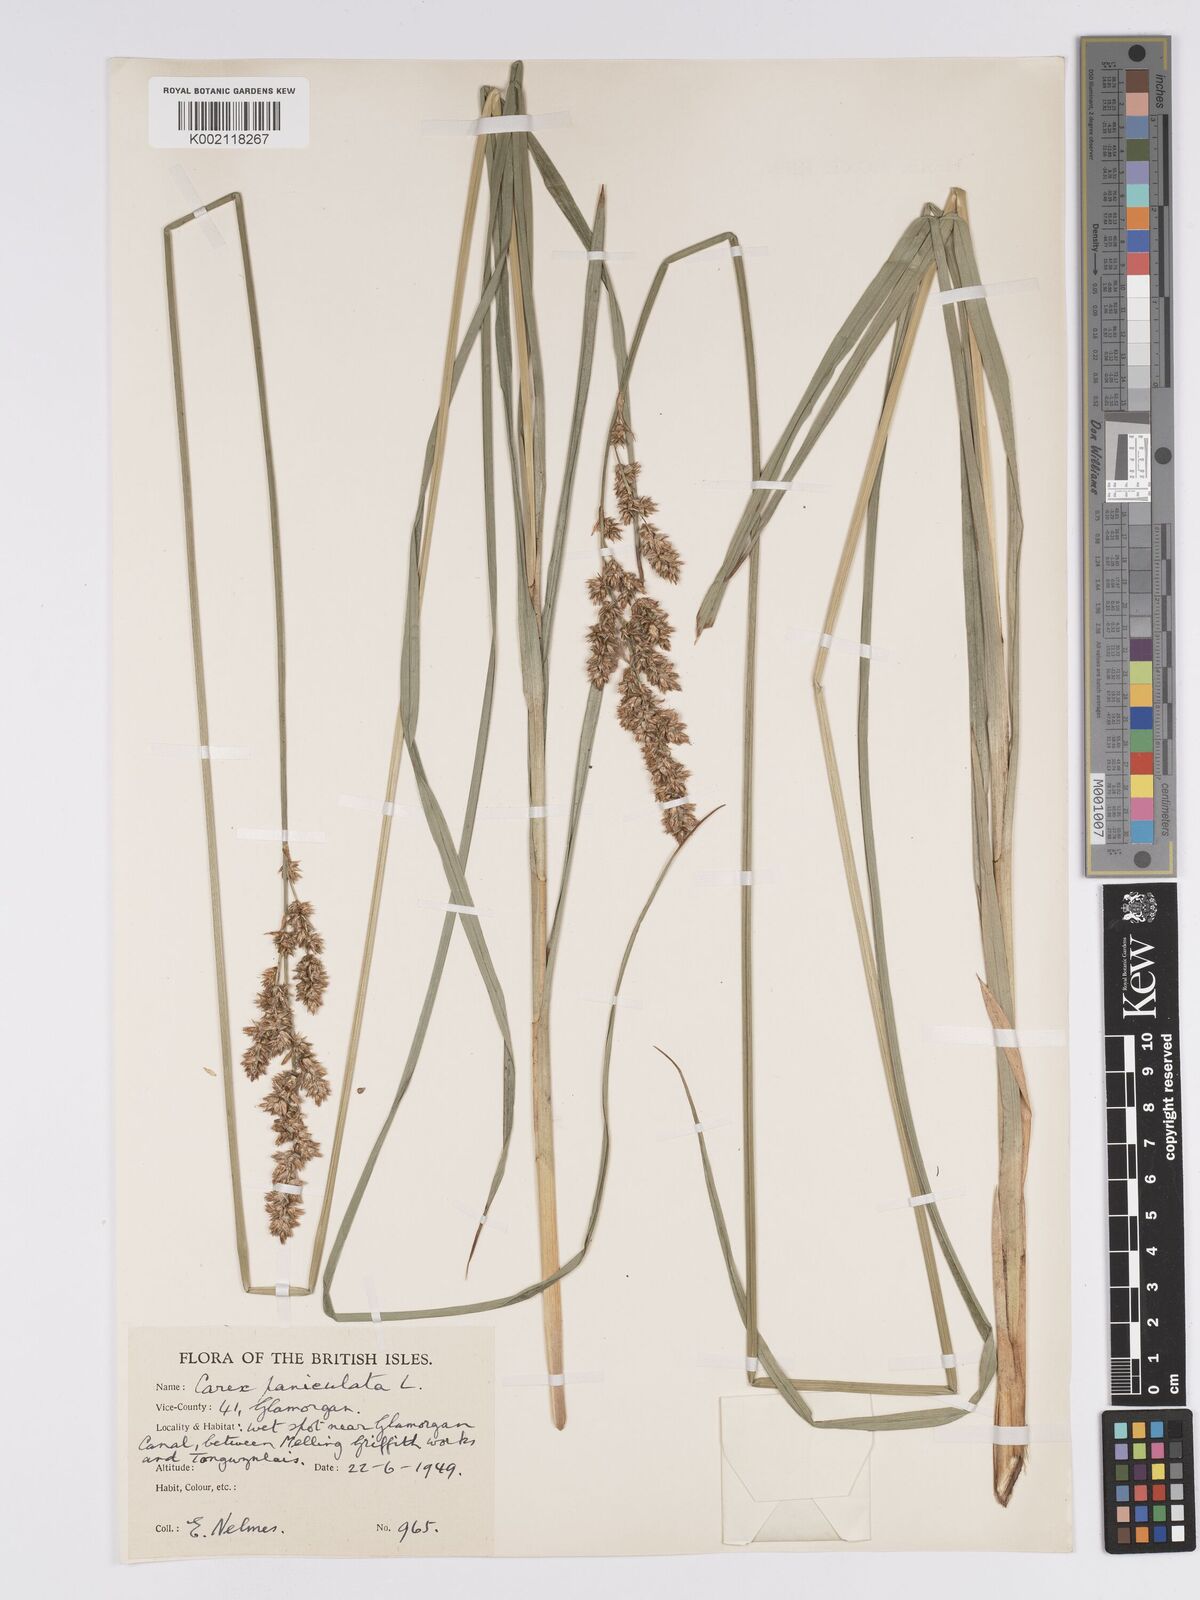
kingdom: Plantae
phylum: Tracheophyta
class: Liliopsida
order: Poales
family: Cyperaceae
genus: Carex
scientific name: Carex paniculata
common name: Greater tussock-sedge
